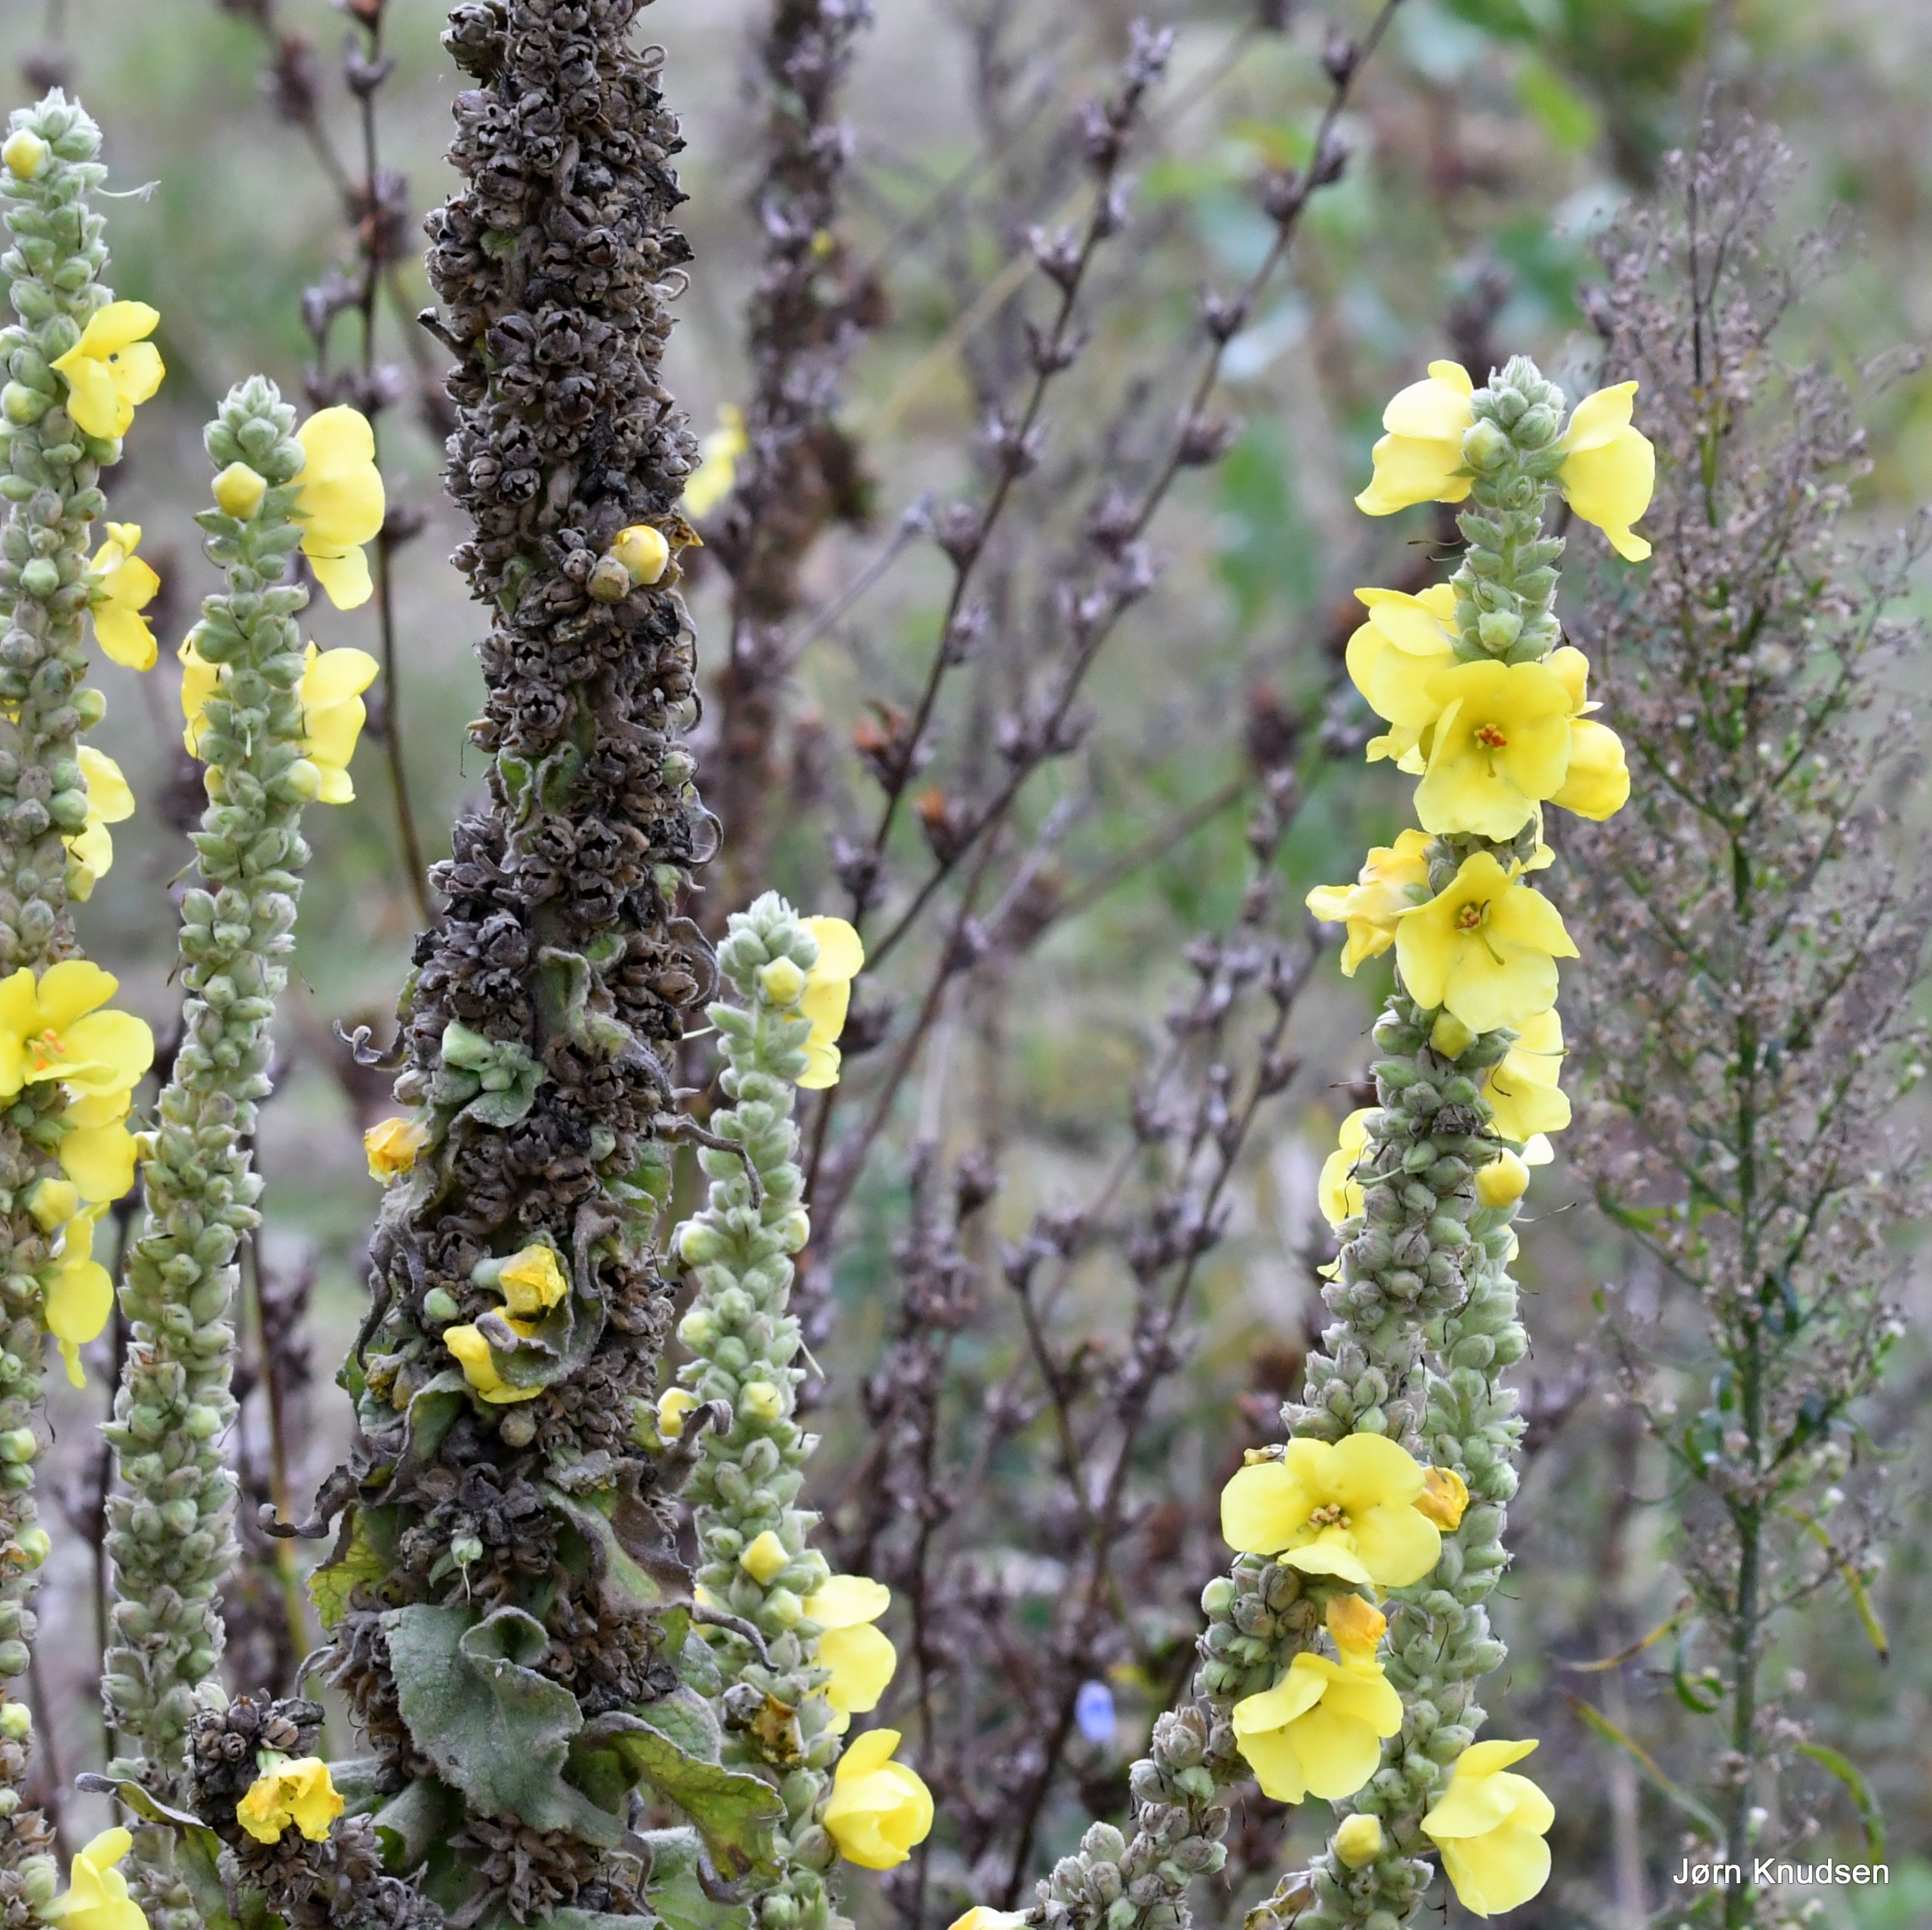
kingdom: Plantae
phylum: Tracheophyta
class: Magnoliopsida
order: Lamiales
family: Scrophulariaceae
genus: Verbascum
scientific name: Verbascum densiflorum
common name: Uldbladet kongelys
